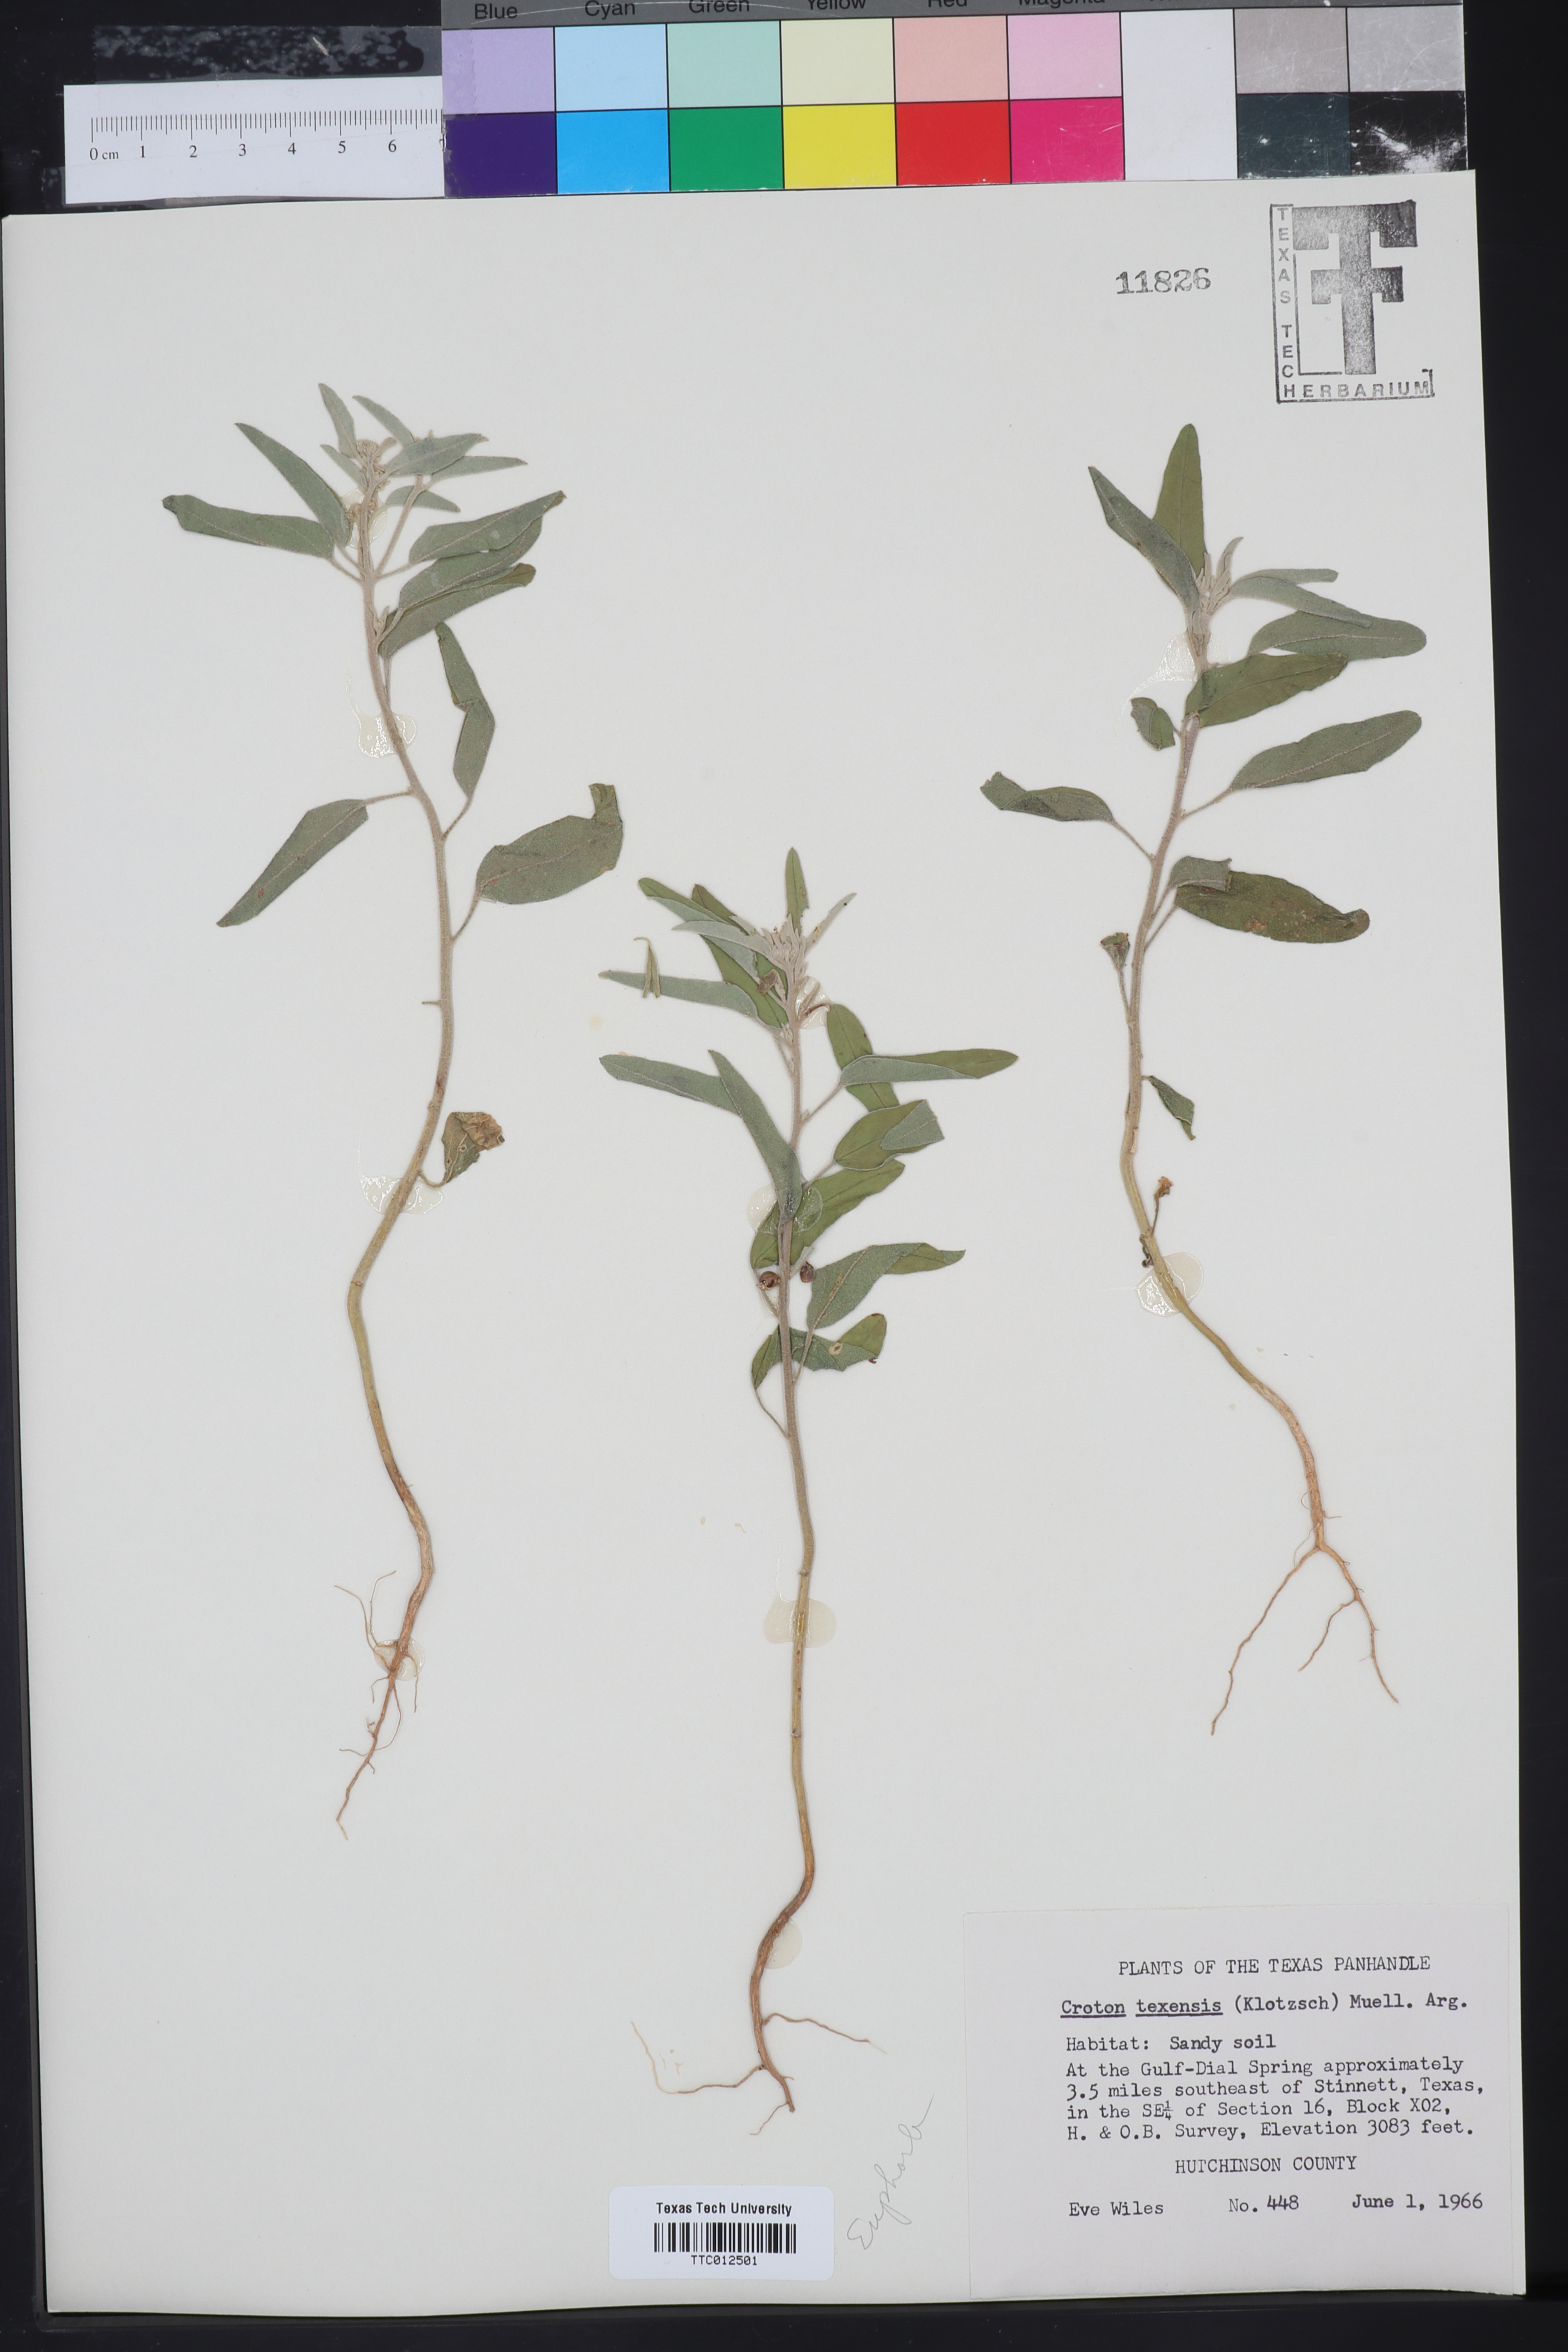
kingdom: Plantae
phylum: Tracheophyta
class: Magnoliopsida
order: Malpighiales
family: Euphorbiaceae
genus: Croton
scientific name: Croton texensis
